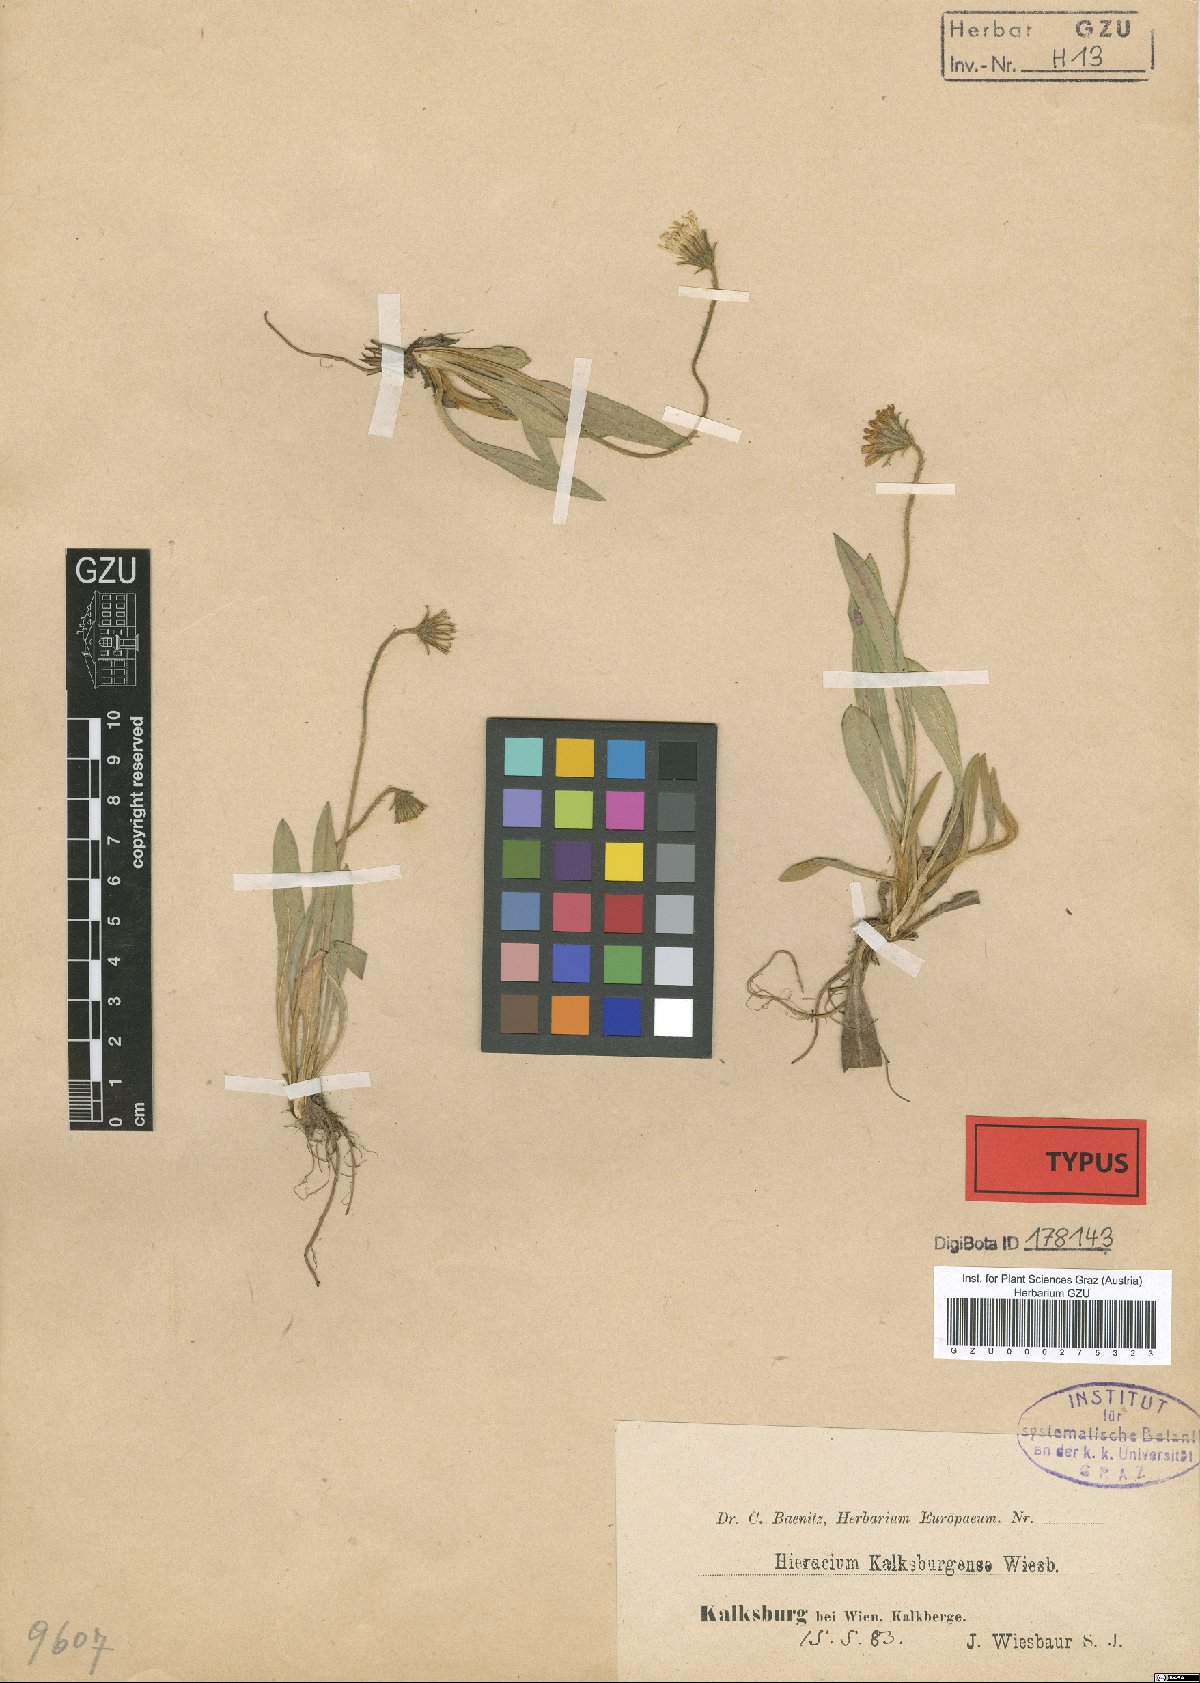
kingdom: Plantae
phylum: Tracheophyta
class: Magnoliopsida
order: Asterales
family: Asteraceae
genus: Pilosella
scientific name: Pilosella acutifolia
